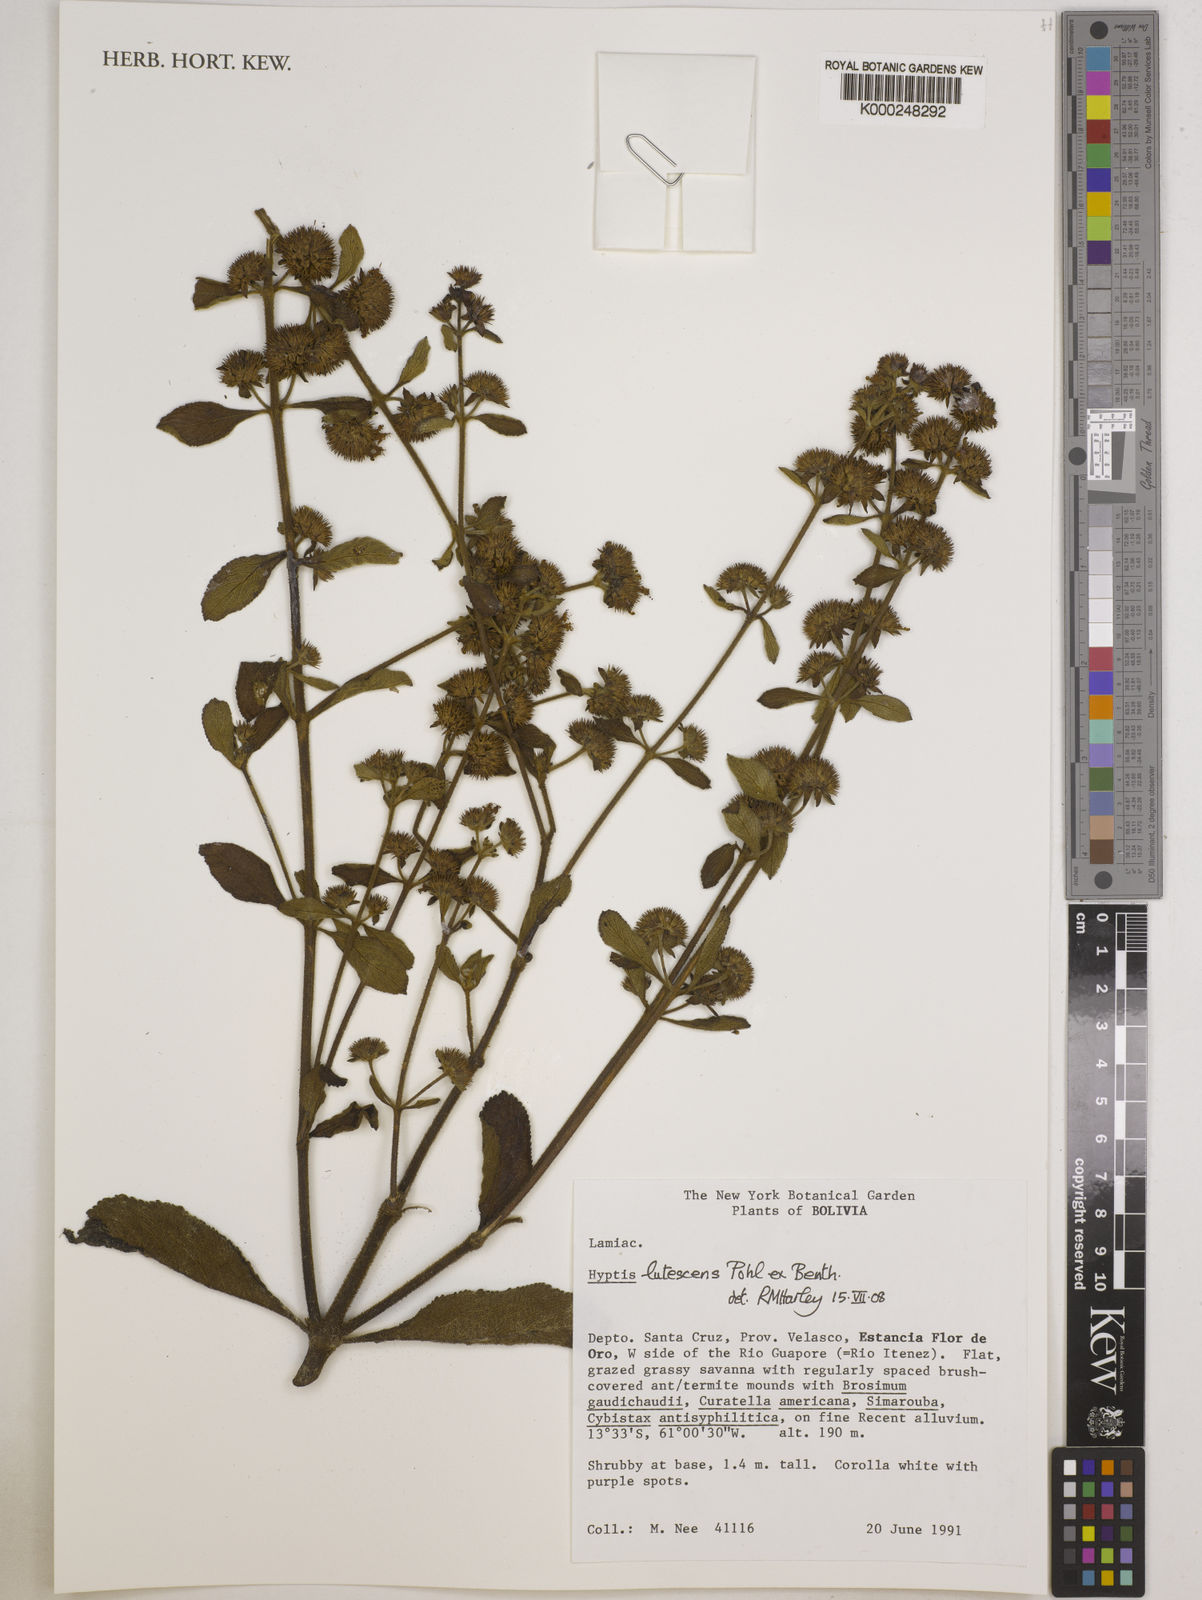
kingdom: Plantae
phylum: Tracheophyta
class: Magnoliopsida
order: Lamiales
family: Lamiaceae
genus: Hyptis
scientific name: Hyptis lutescens
